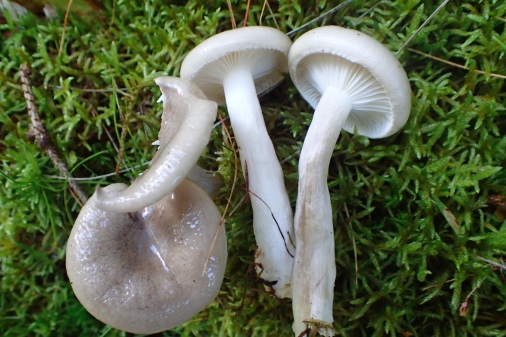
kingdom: Fungi
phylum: Basidiomycota
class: Agaricomycetes
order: Agaricales
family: Hygrophoraceae
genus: Hygrophorus
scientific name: Hygrophorus agathosmus
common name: vellugtende sneglehat
